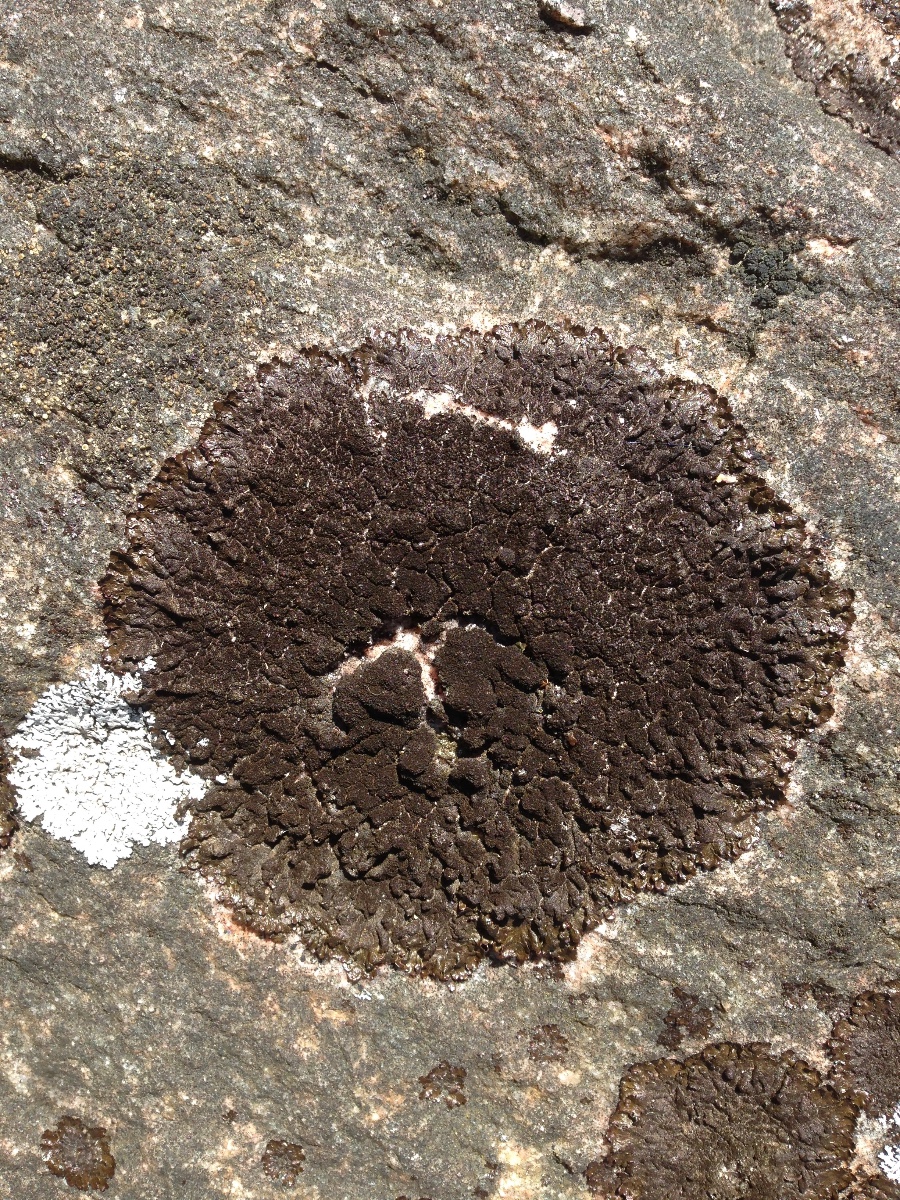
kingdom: Fungi
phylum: Ascomycota
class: Lecanoromycetes
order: Lecanorales
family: Parmeliaceae
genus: Melanelixia
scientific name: Melanelixia fuliginosa
